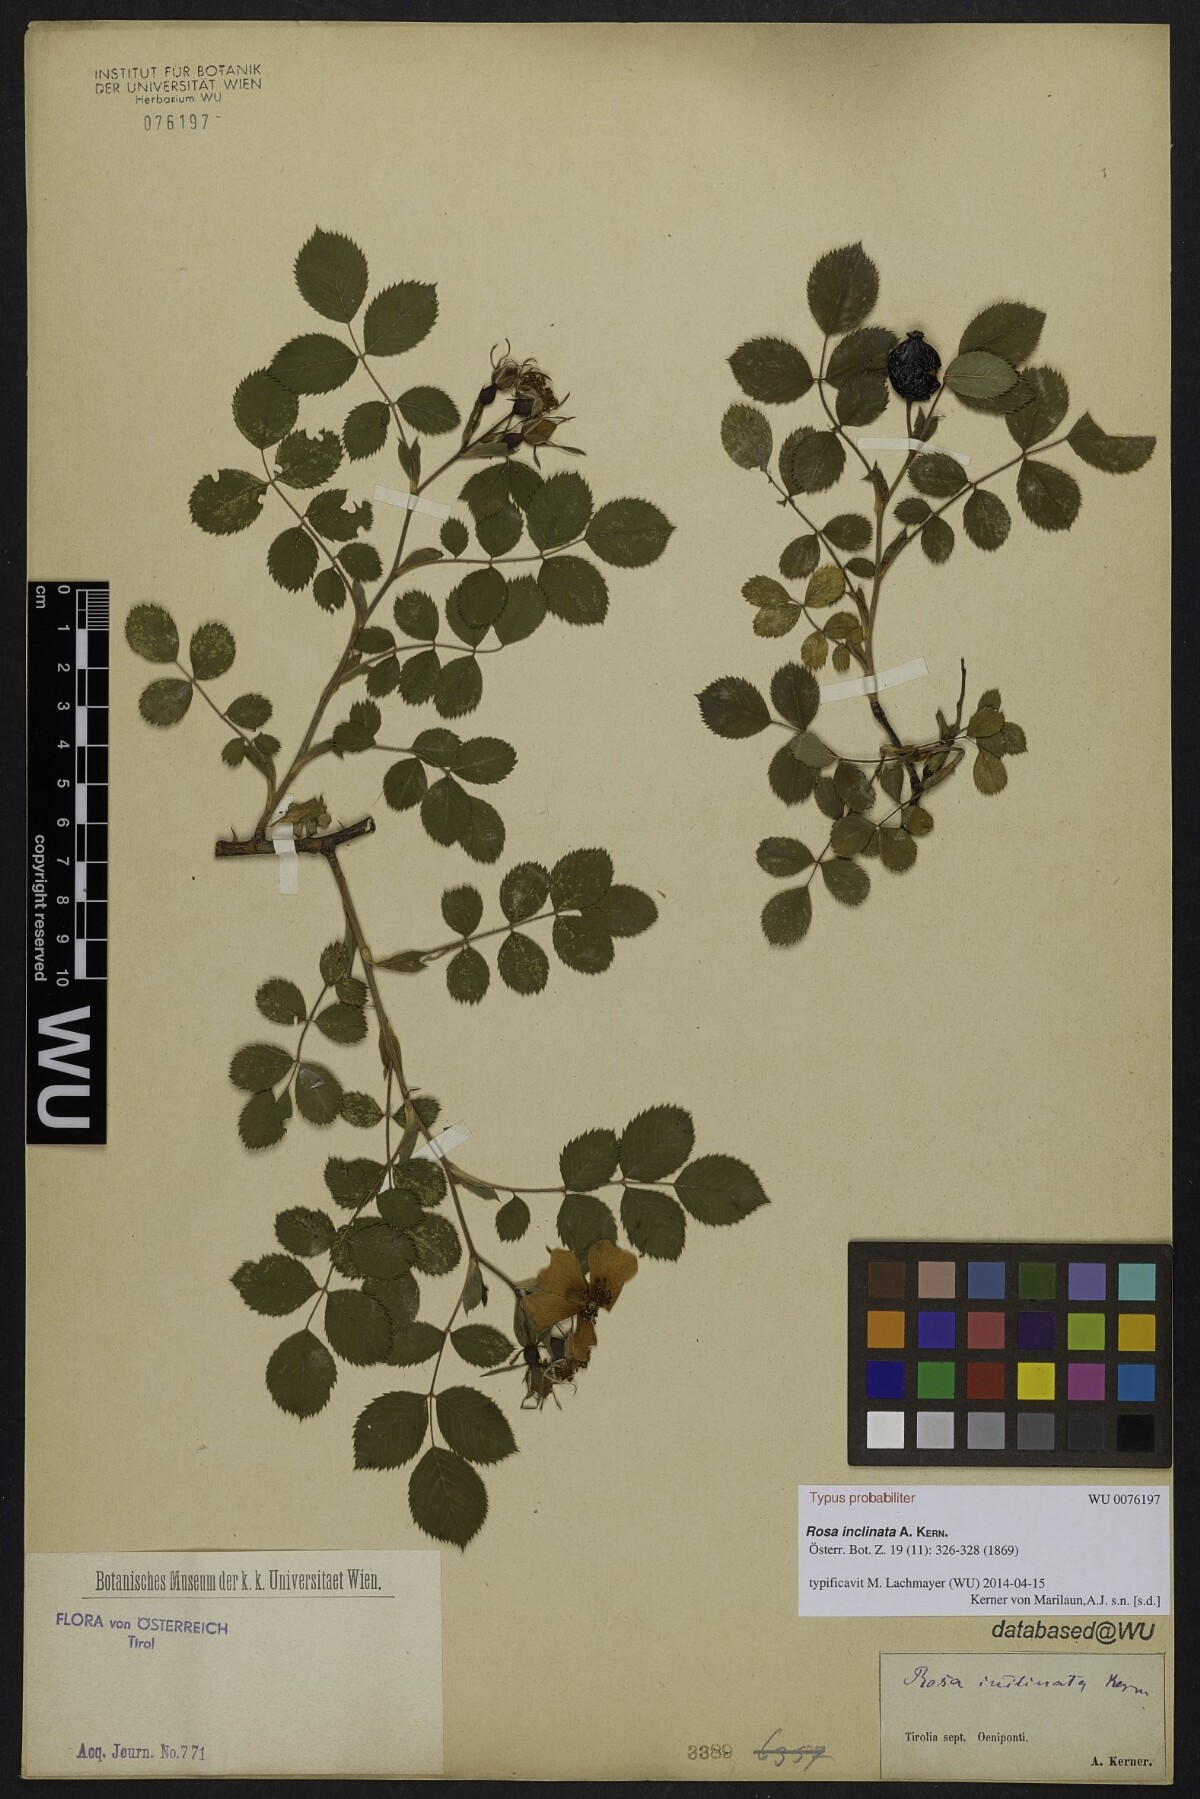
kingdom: Plantae
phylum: Tracheophyta
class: Magnoliopsida
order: Rosales
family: Rosaceae
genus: Rosa
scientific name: Rosa tomentosa
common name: Downy rose
